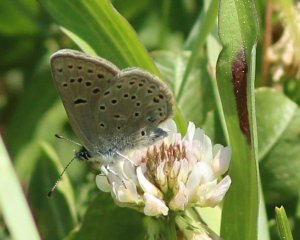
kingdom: Animalia
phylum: Arthropoda
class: Insecta
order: Lepidoptera
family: Lycaenidae
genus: Plebejus
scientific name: Plebejus saepiolus
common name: Greenish Blue
